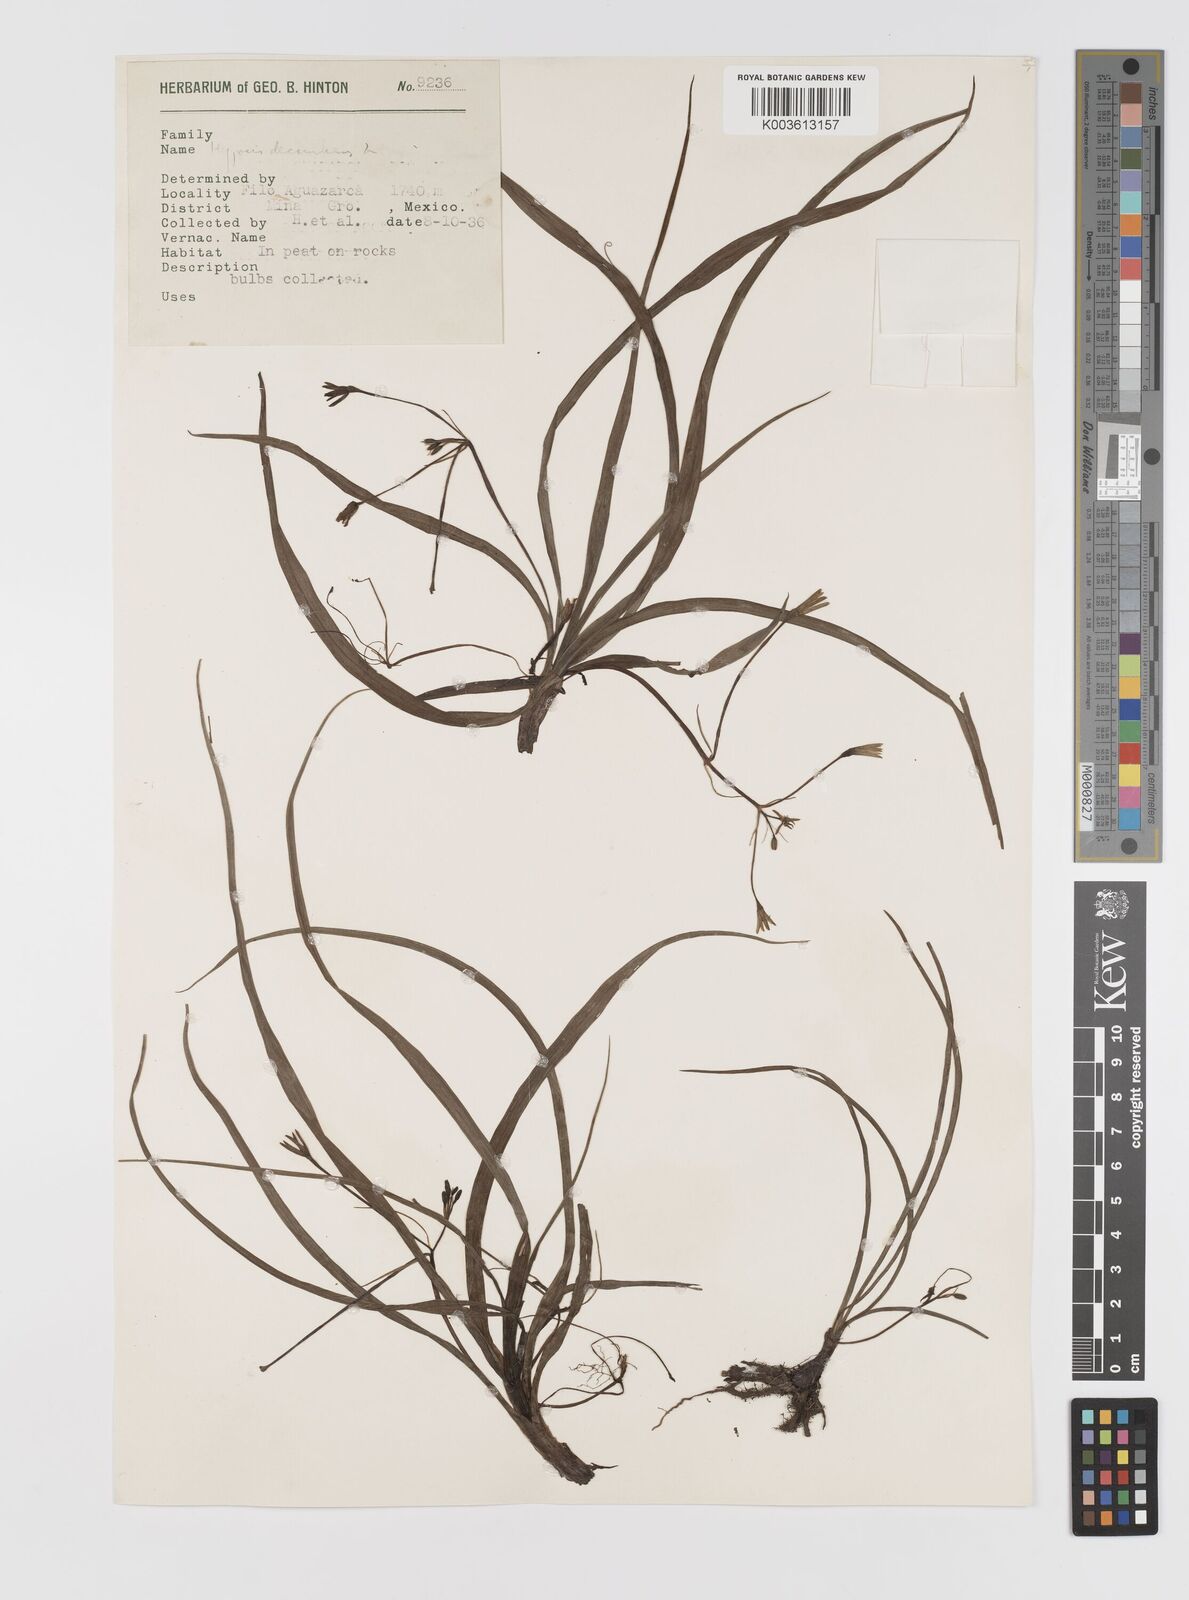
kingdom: Plantae
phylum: Tracheophyta
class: Liliopsida
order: Asparagales
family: Hypoxidaceae
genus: Hypoxis
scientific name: Hypoxis decumbens
